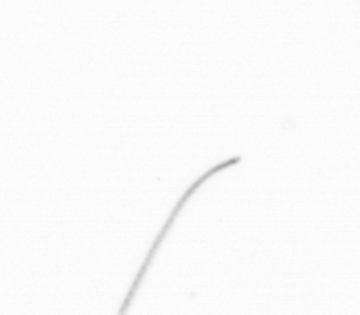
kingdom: Chromista
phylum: Ochrophyta
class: Bacillariophyceae
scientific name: Bacillariophyceae
